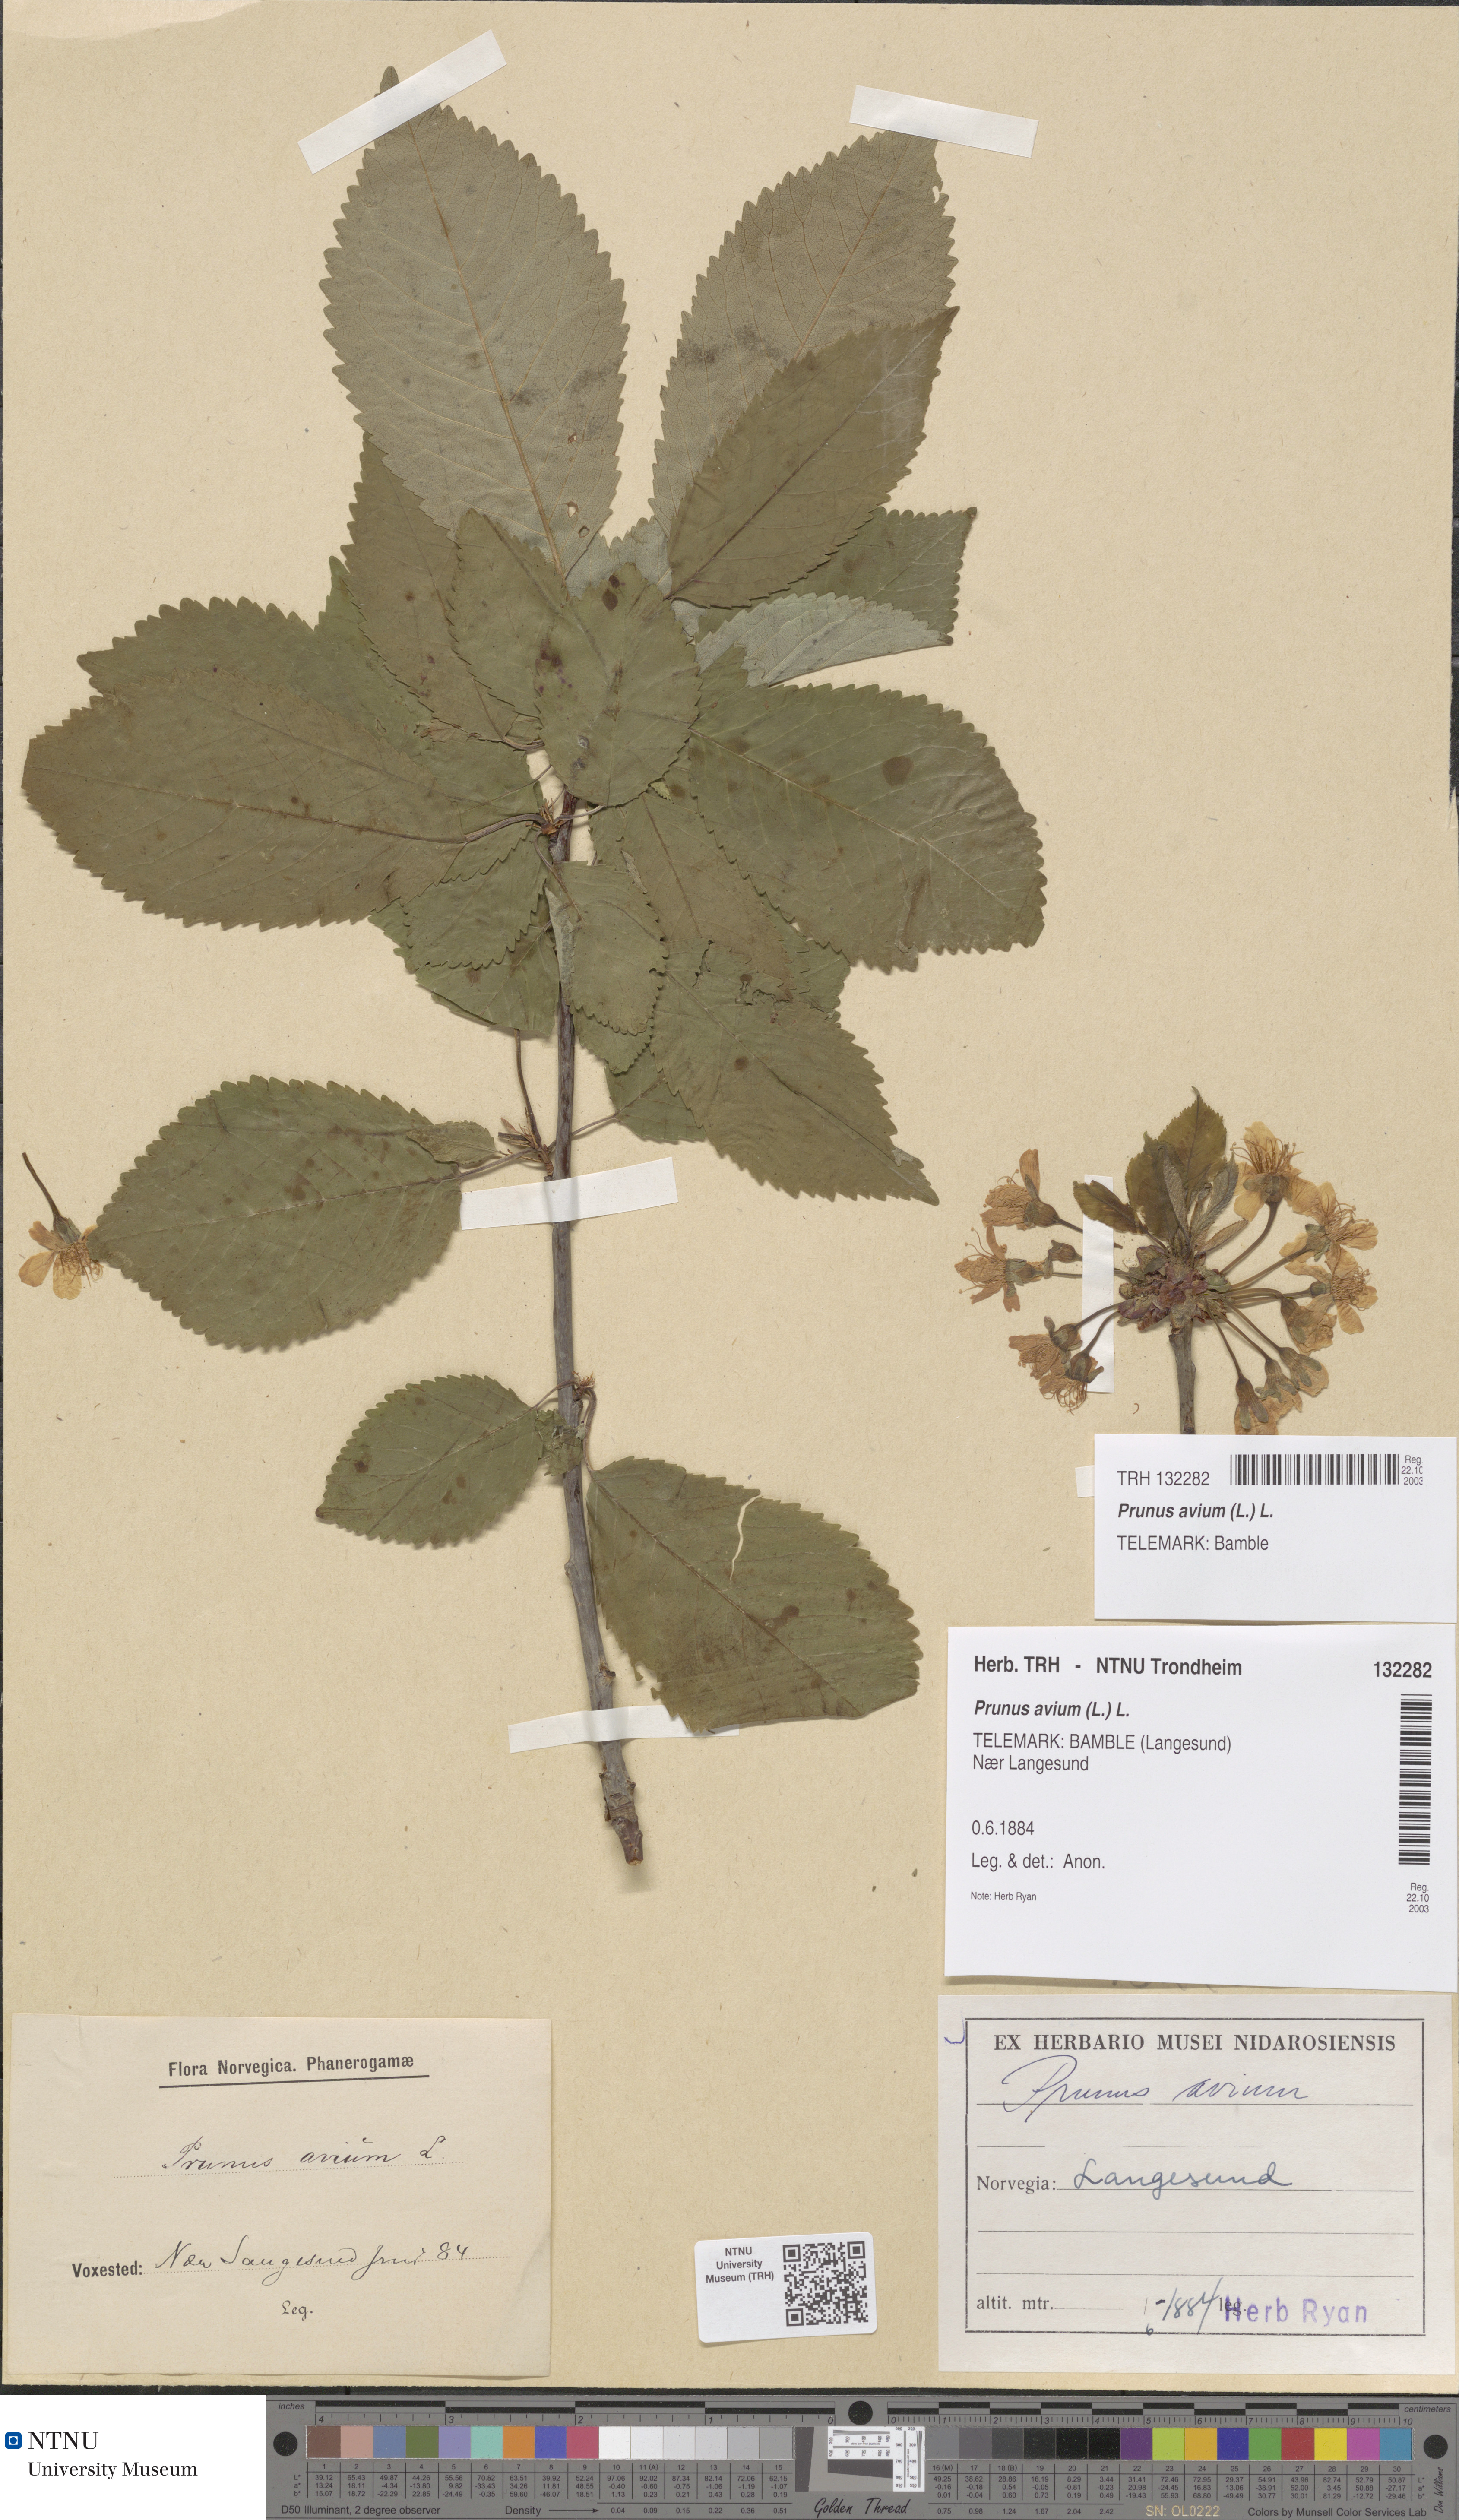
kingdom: Plantae
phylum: Tracheophyta
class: Magnoliopsida
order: Rosales
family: Rosaceae
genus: Prunus
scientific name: Prunus avium
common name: Sweet cherry
